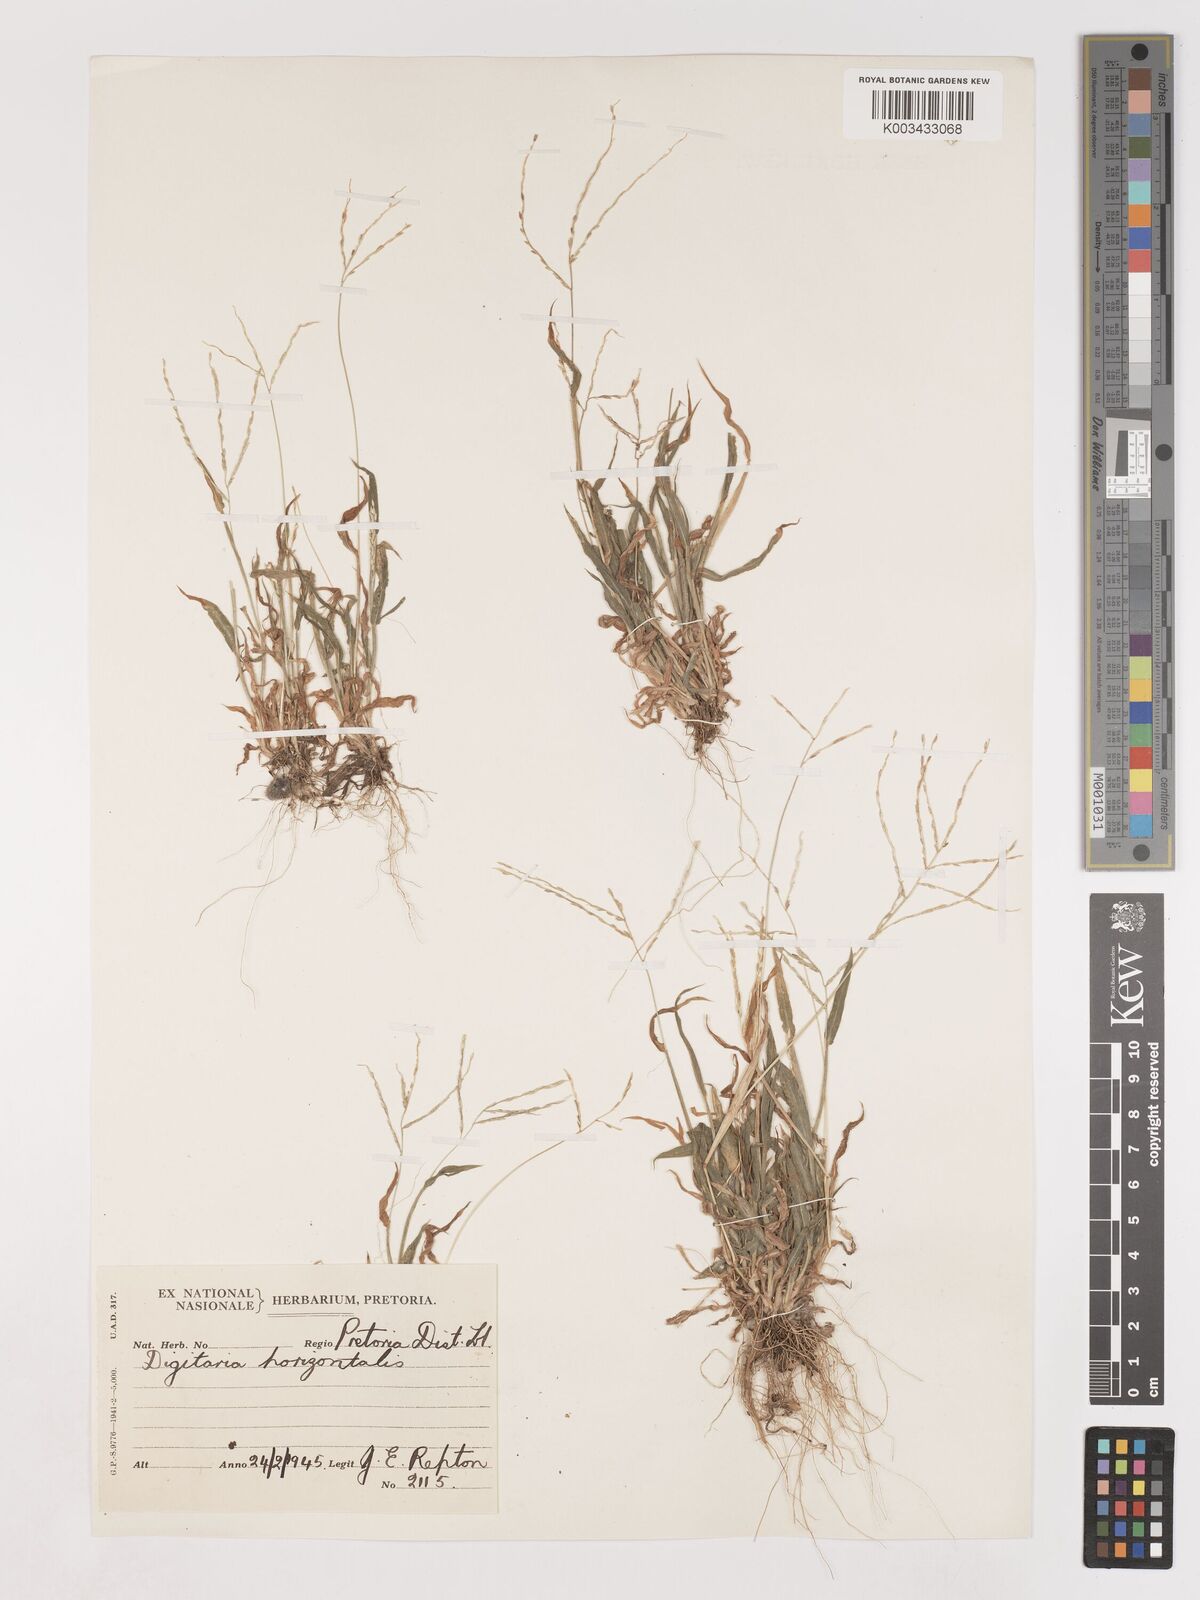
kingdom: Plantae
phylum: Tracheophyta
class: Liliopsida
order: Poales
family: Poaceae
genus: Digitaria
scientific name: Digitaria velutina
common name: Long-plume finger grass
